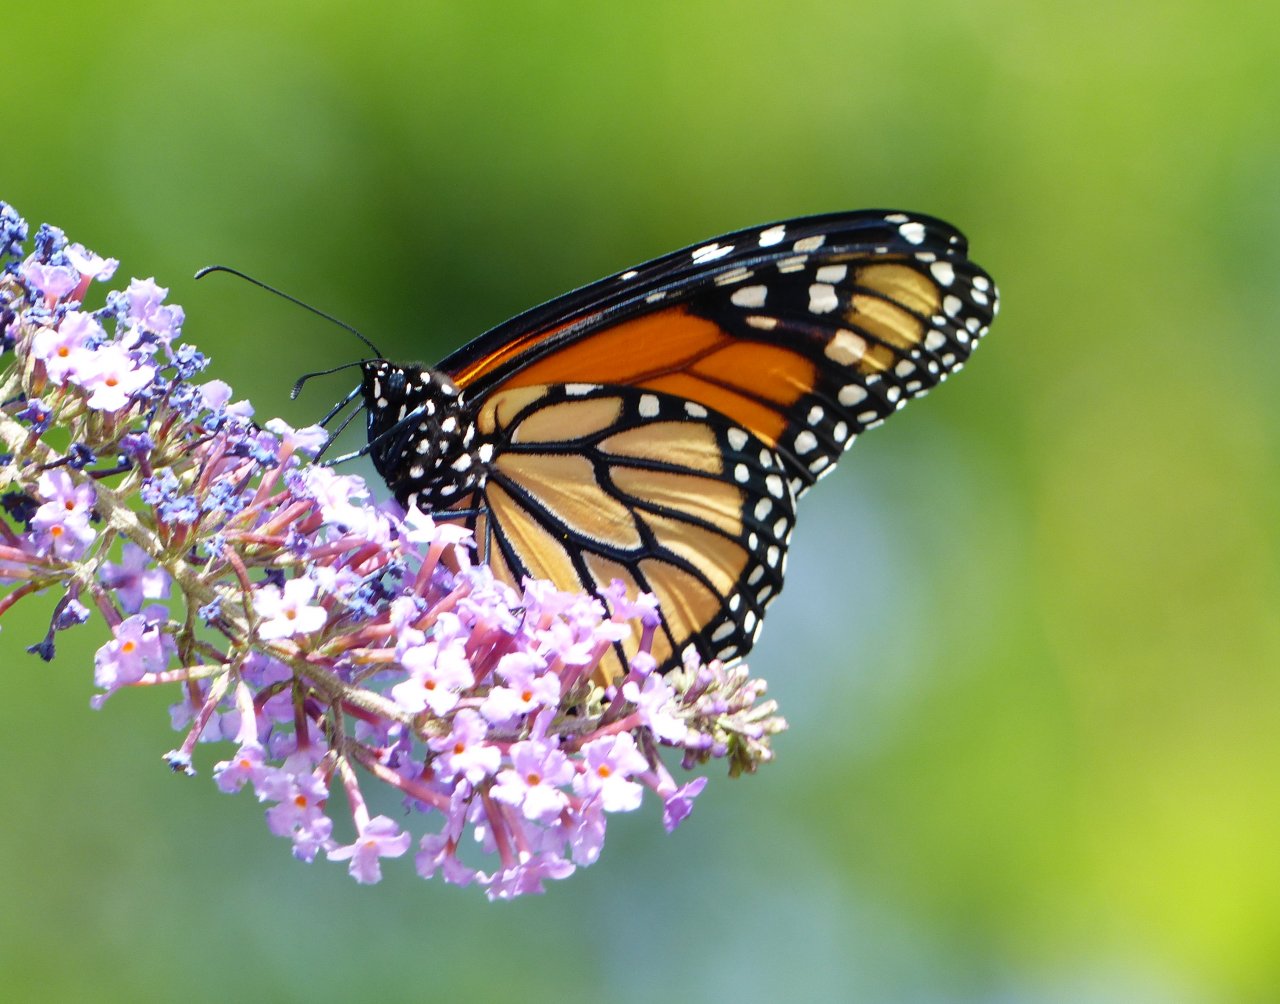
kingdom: Animalia
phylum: Arthropoda
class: Insecta
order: Lepidoptera
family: Nymphalidae
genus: Danaus
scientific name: Danaus plexippus
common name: Monarch
